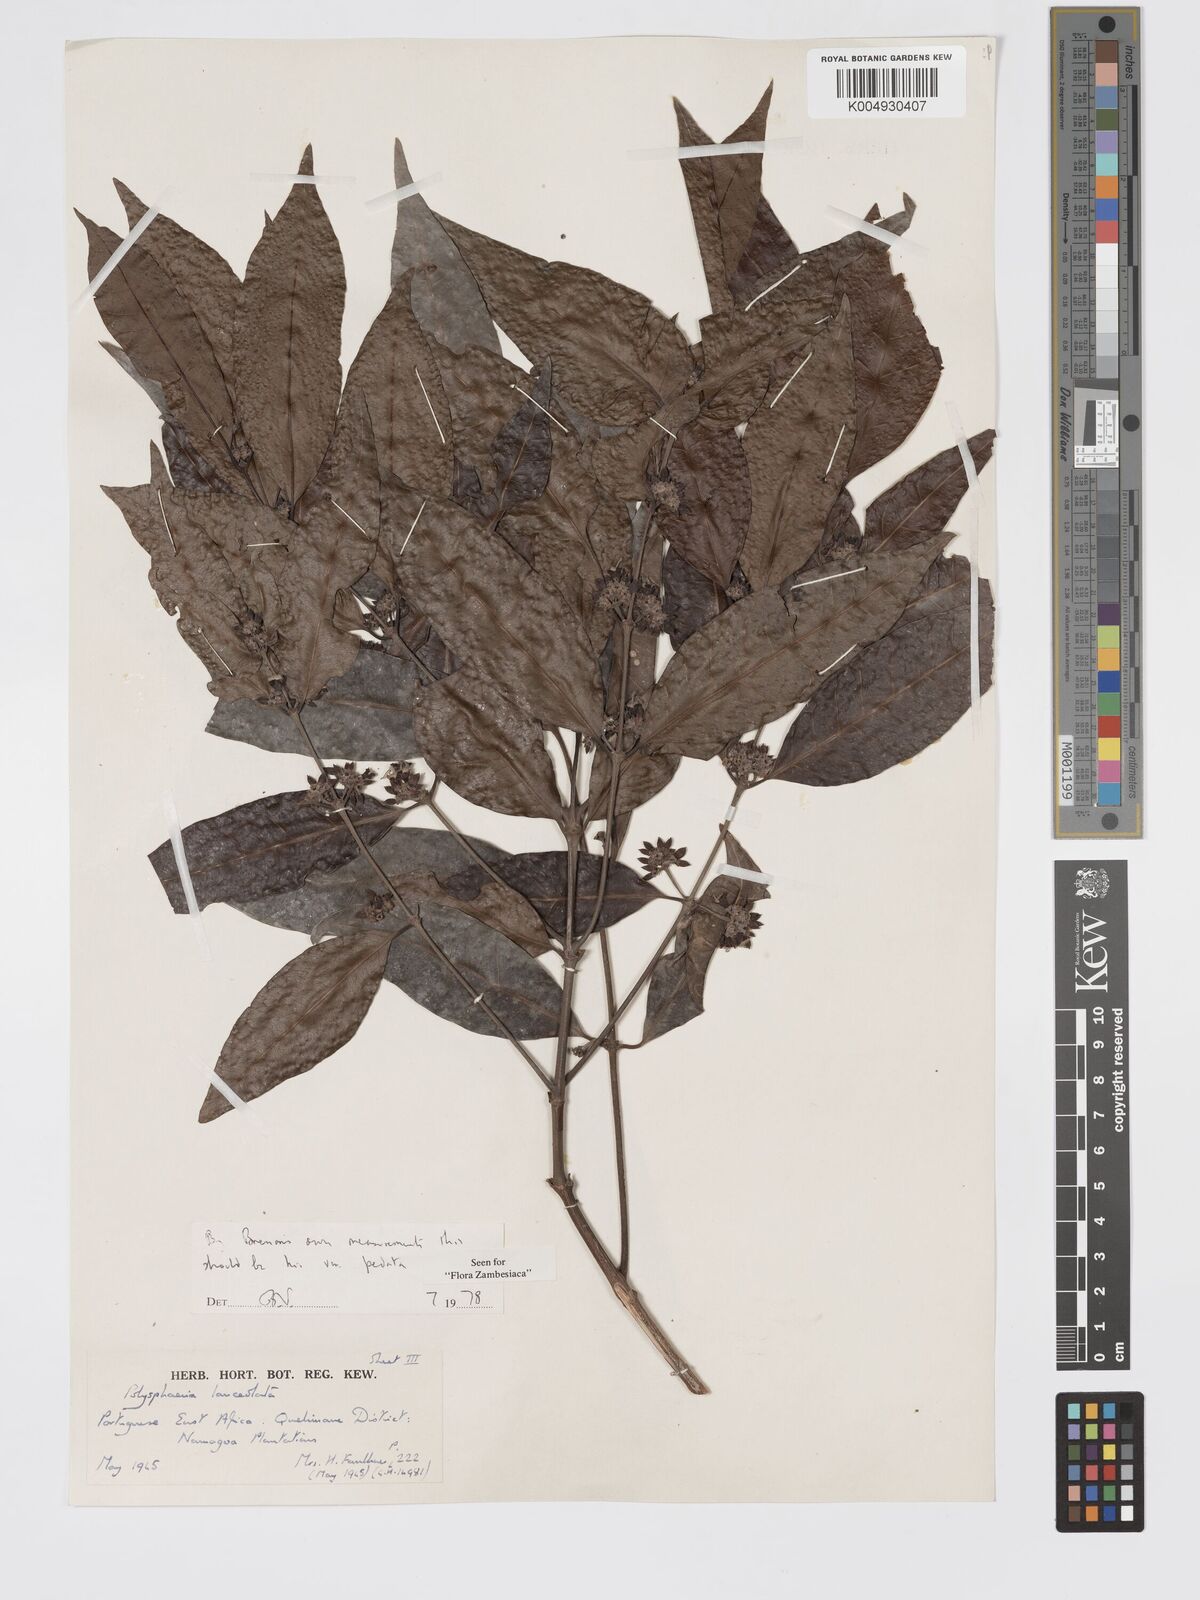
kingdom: Plantae
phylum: Tracheophyta
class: Magnoliopsida
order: Gentianales
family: Rubiaceae
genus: Polysphaeria
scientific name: Polysphaeria lanceolata
